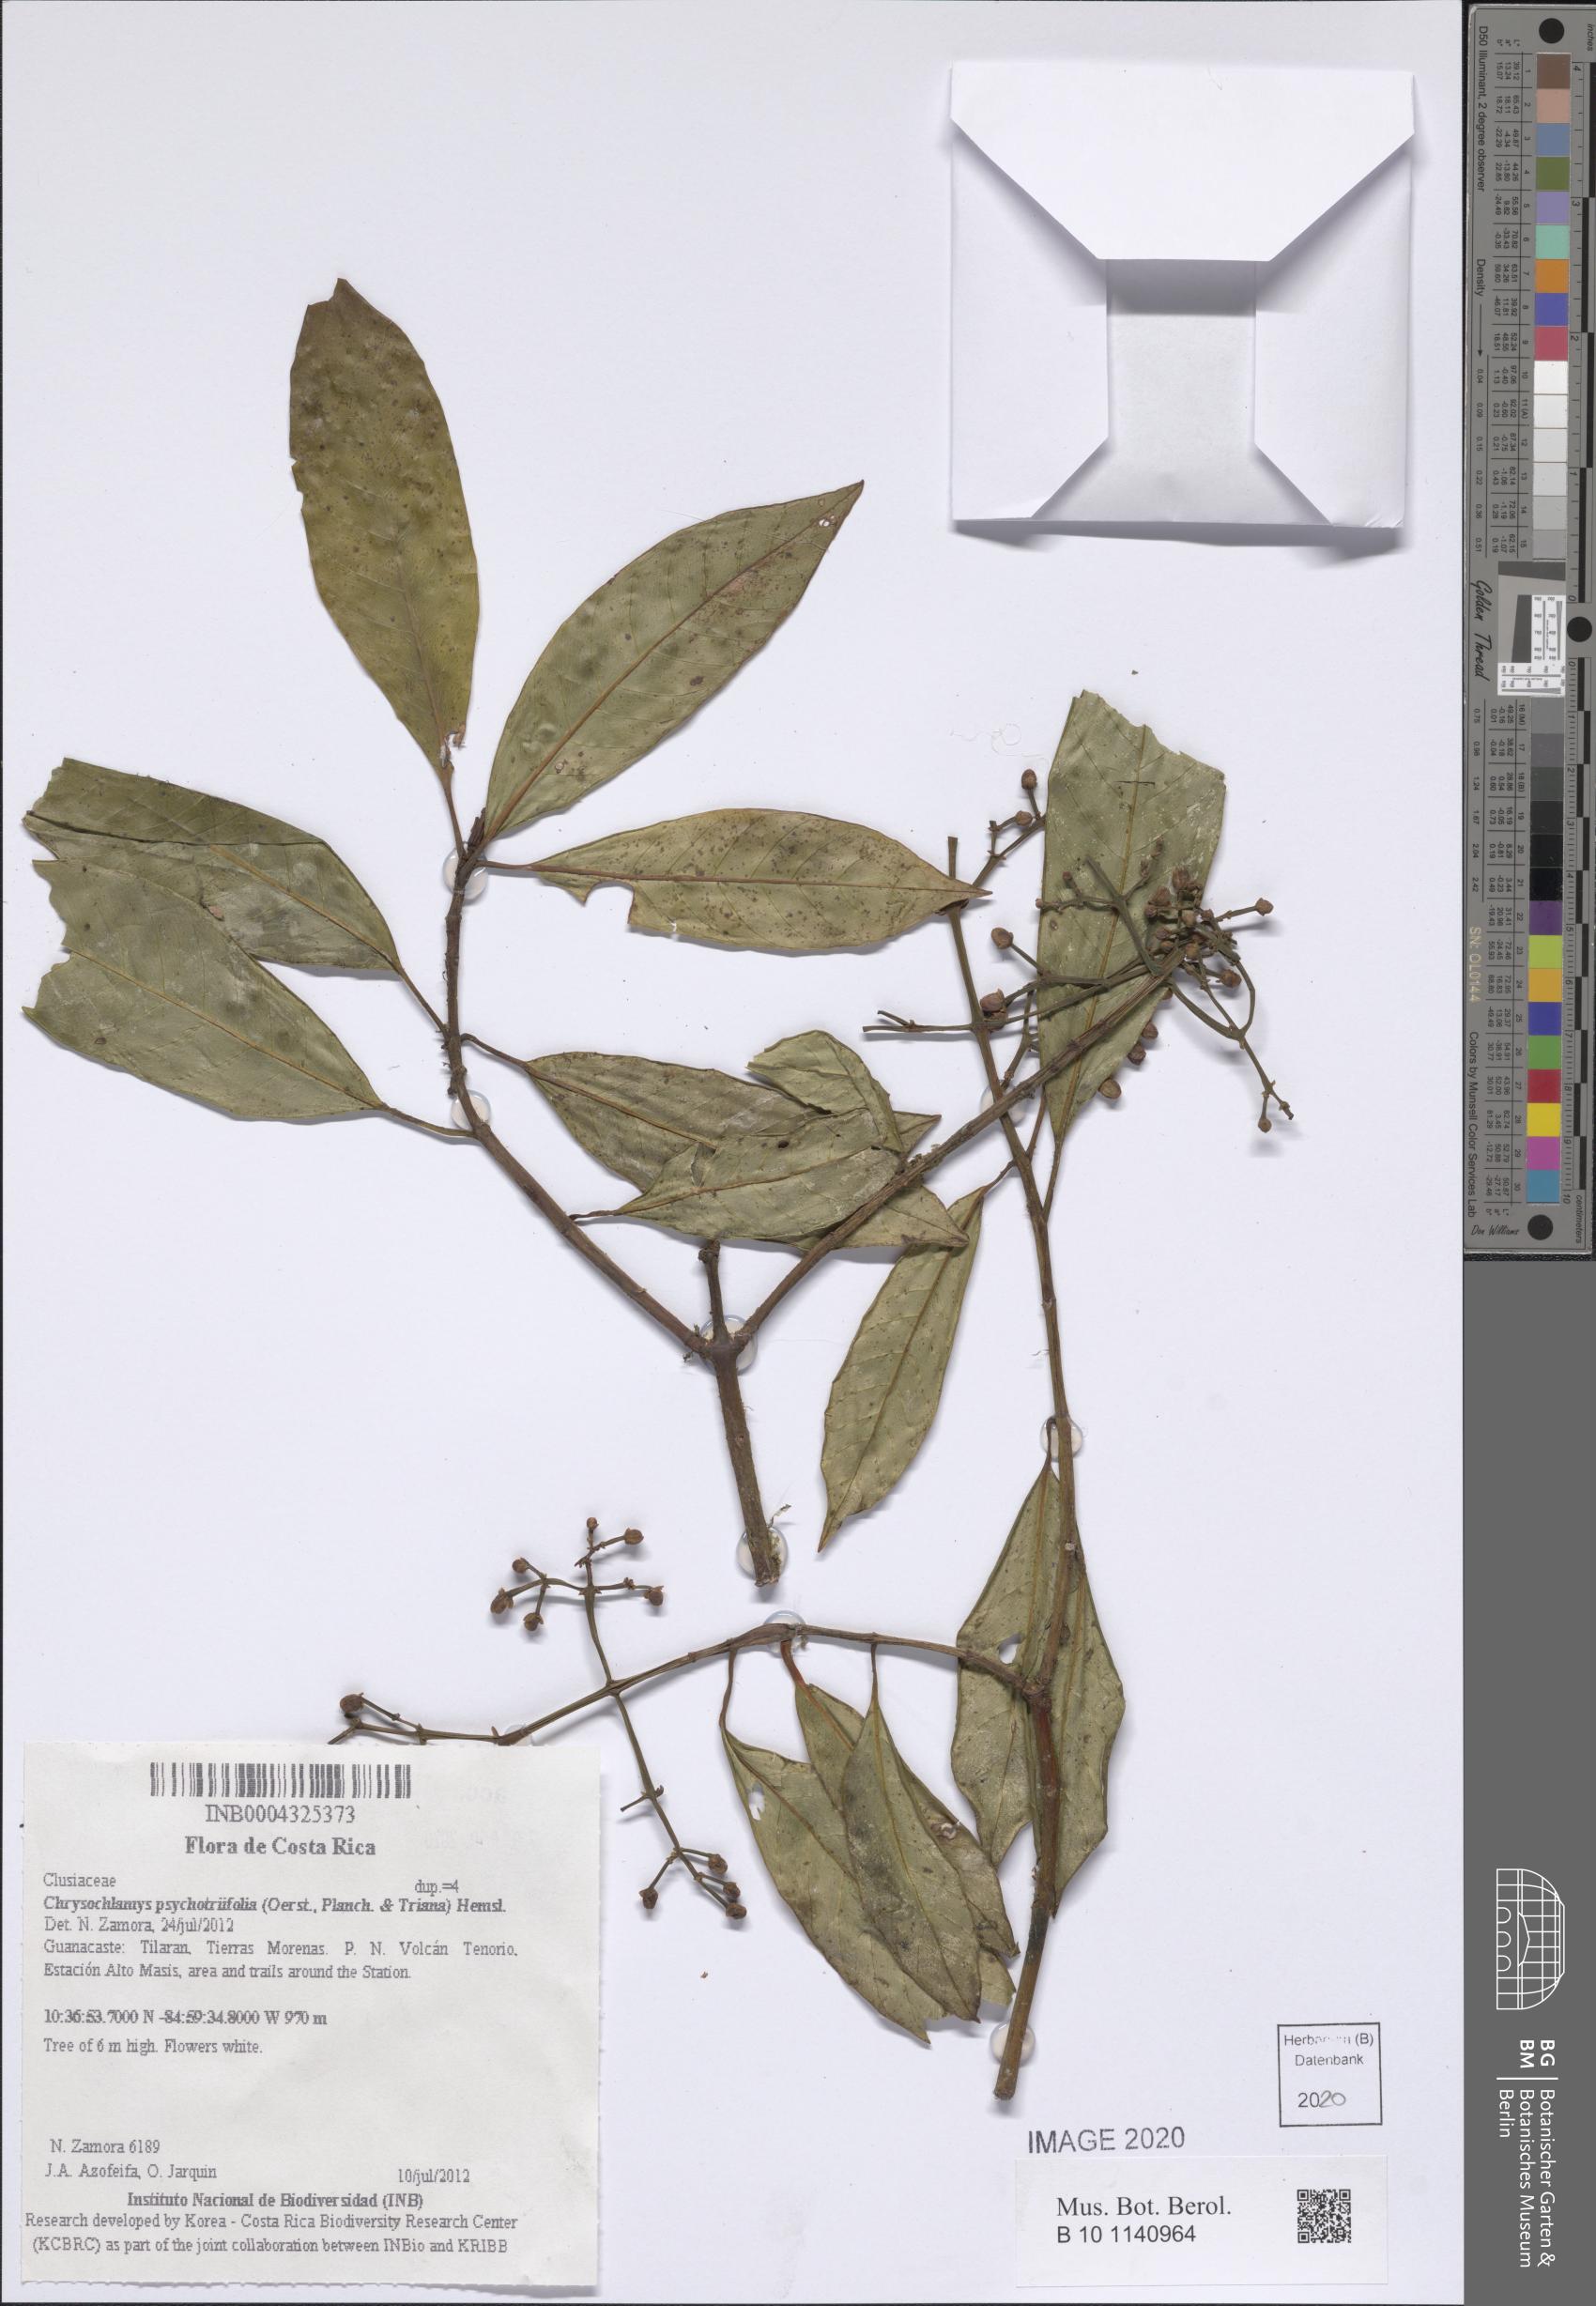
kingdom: Plantae
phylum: Tracheophyta
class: Magnoliopsida
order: Malpighiales
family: Clusiaceae
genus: Chrysochlamys
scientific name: Chrysochlamys psychotriifolia
